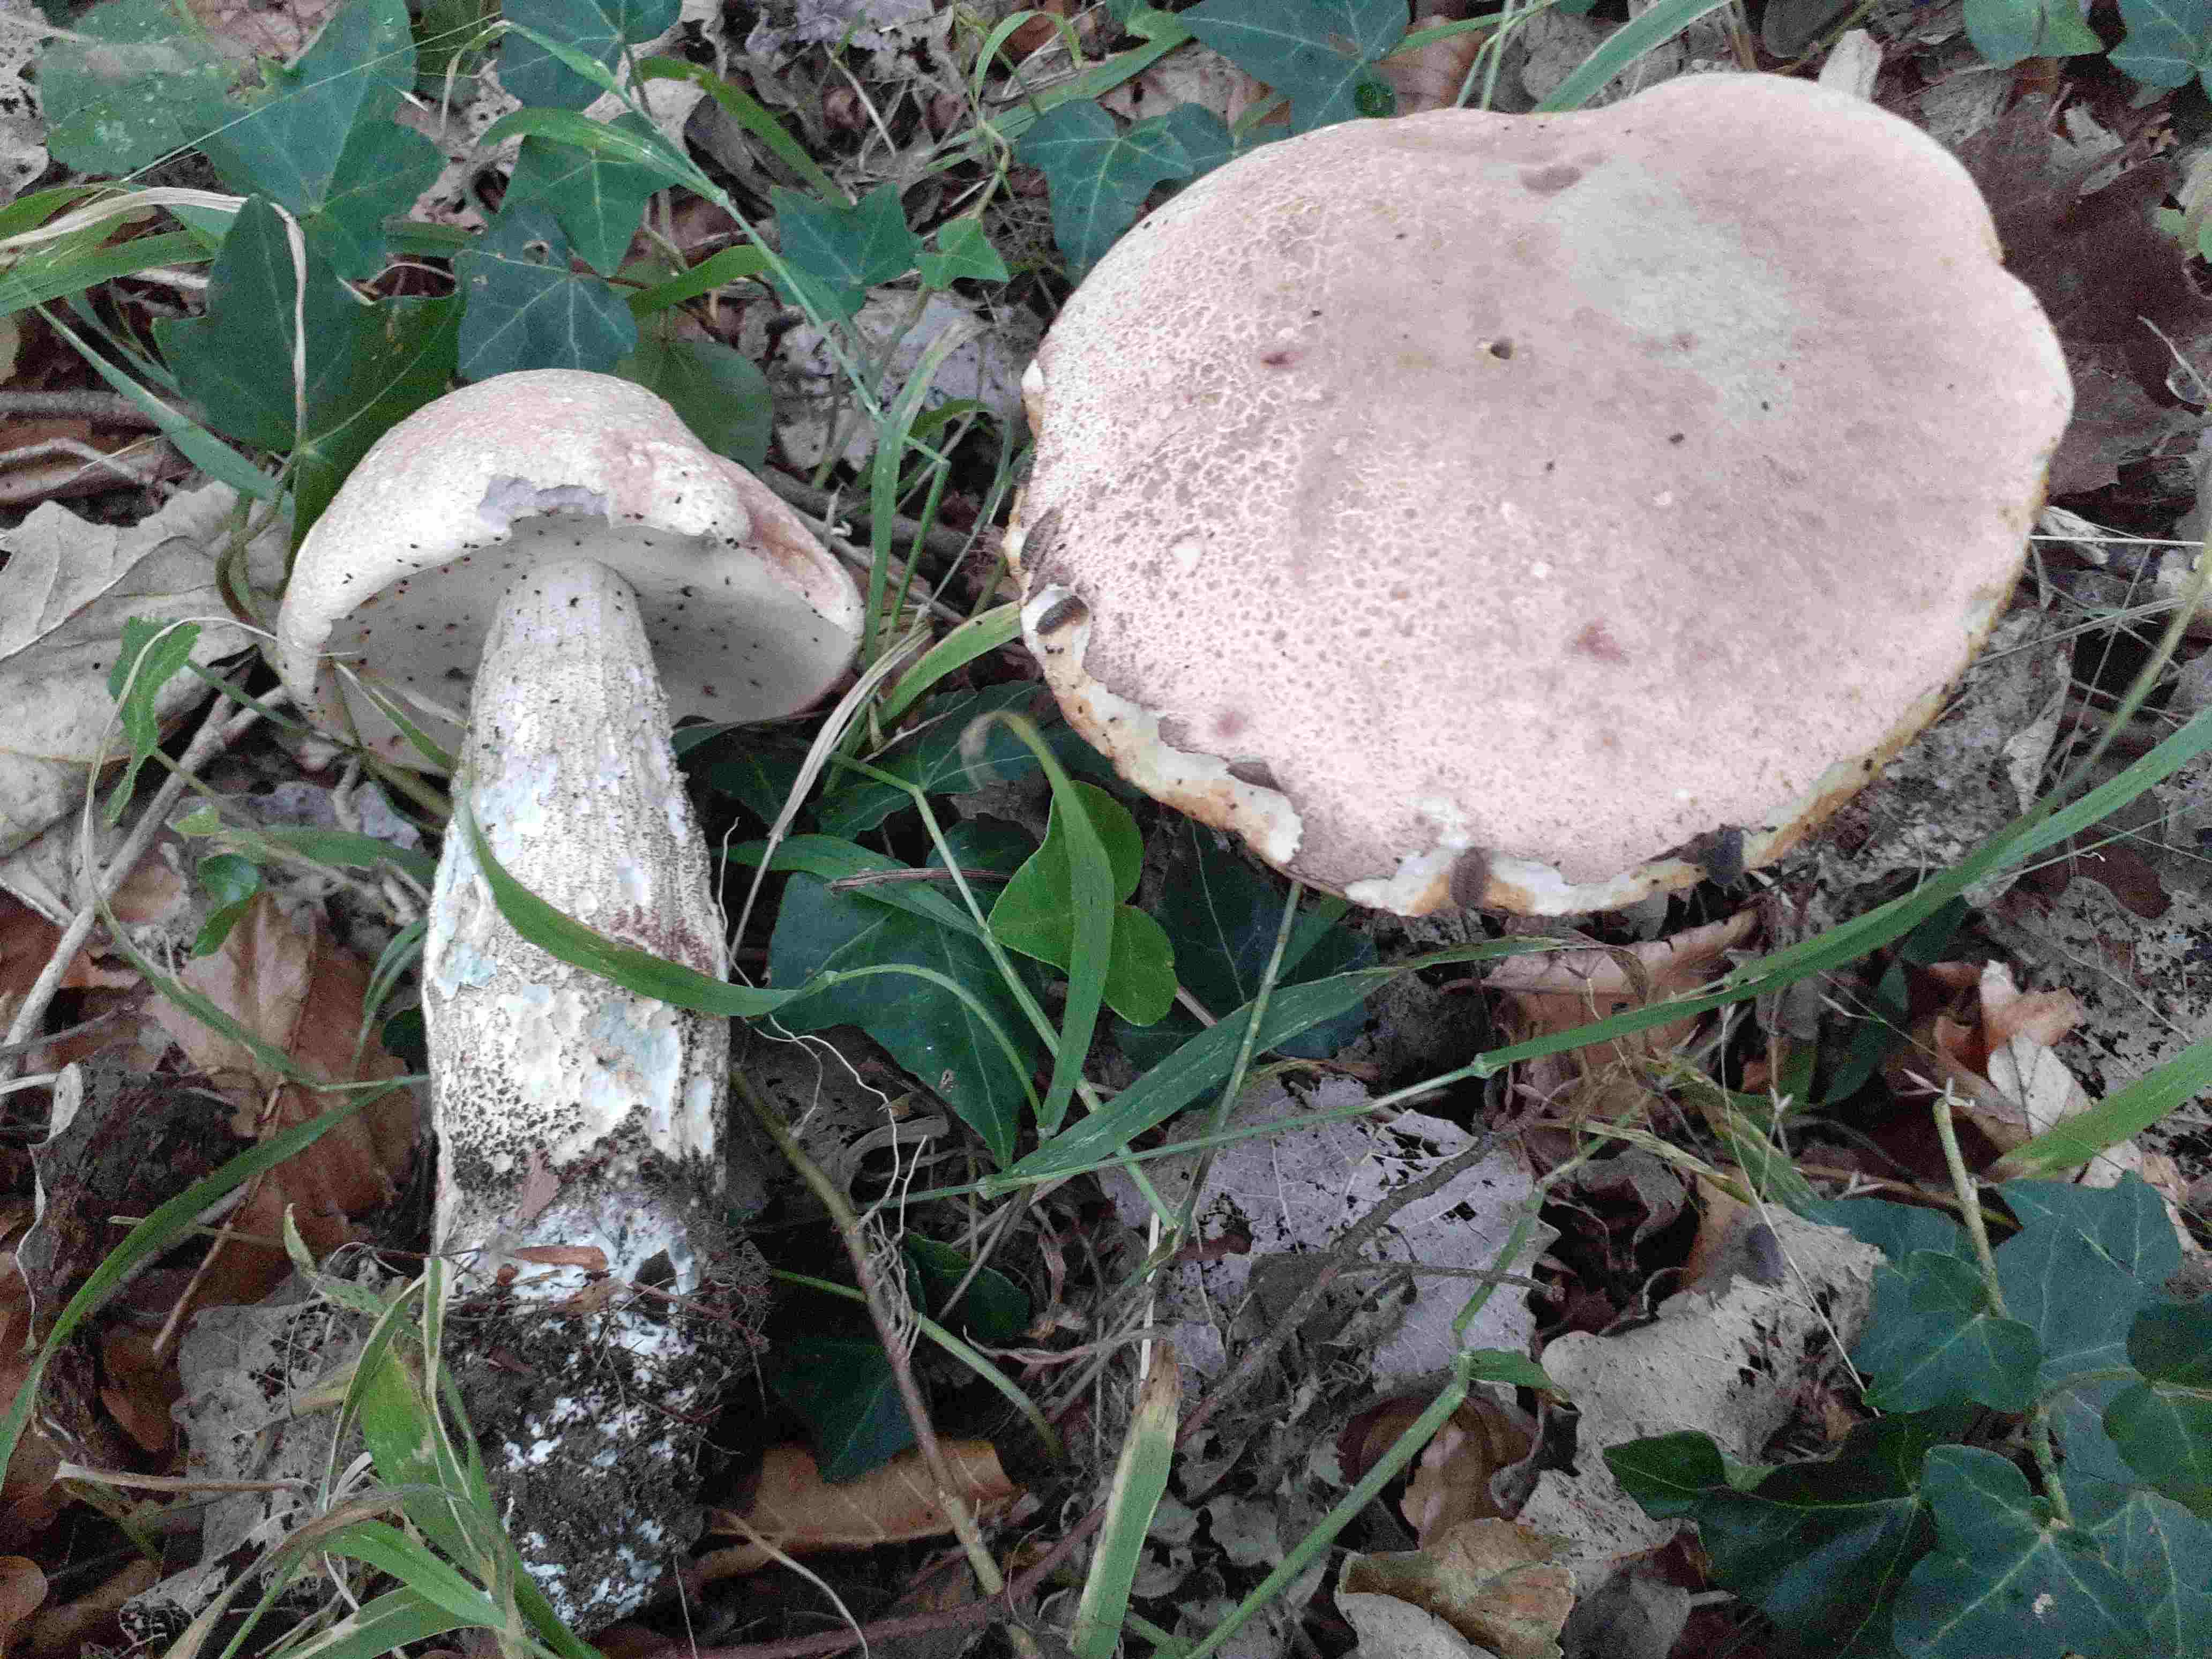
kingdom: Fungi
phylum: Basidiomycota
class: Agaricomycetes
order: Boletales
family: Boletaceae
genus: Leccinum
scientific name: Leccinum duriusculum
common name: poppel-skælrørhat
